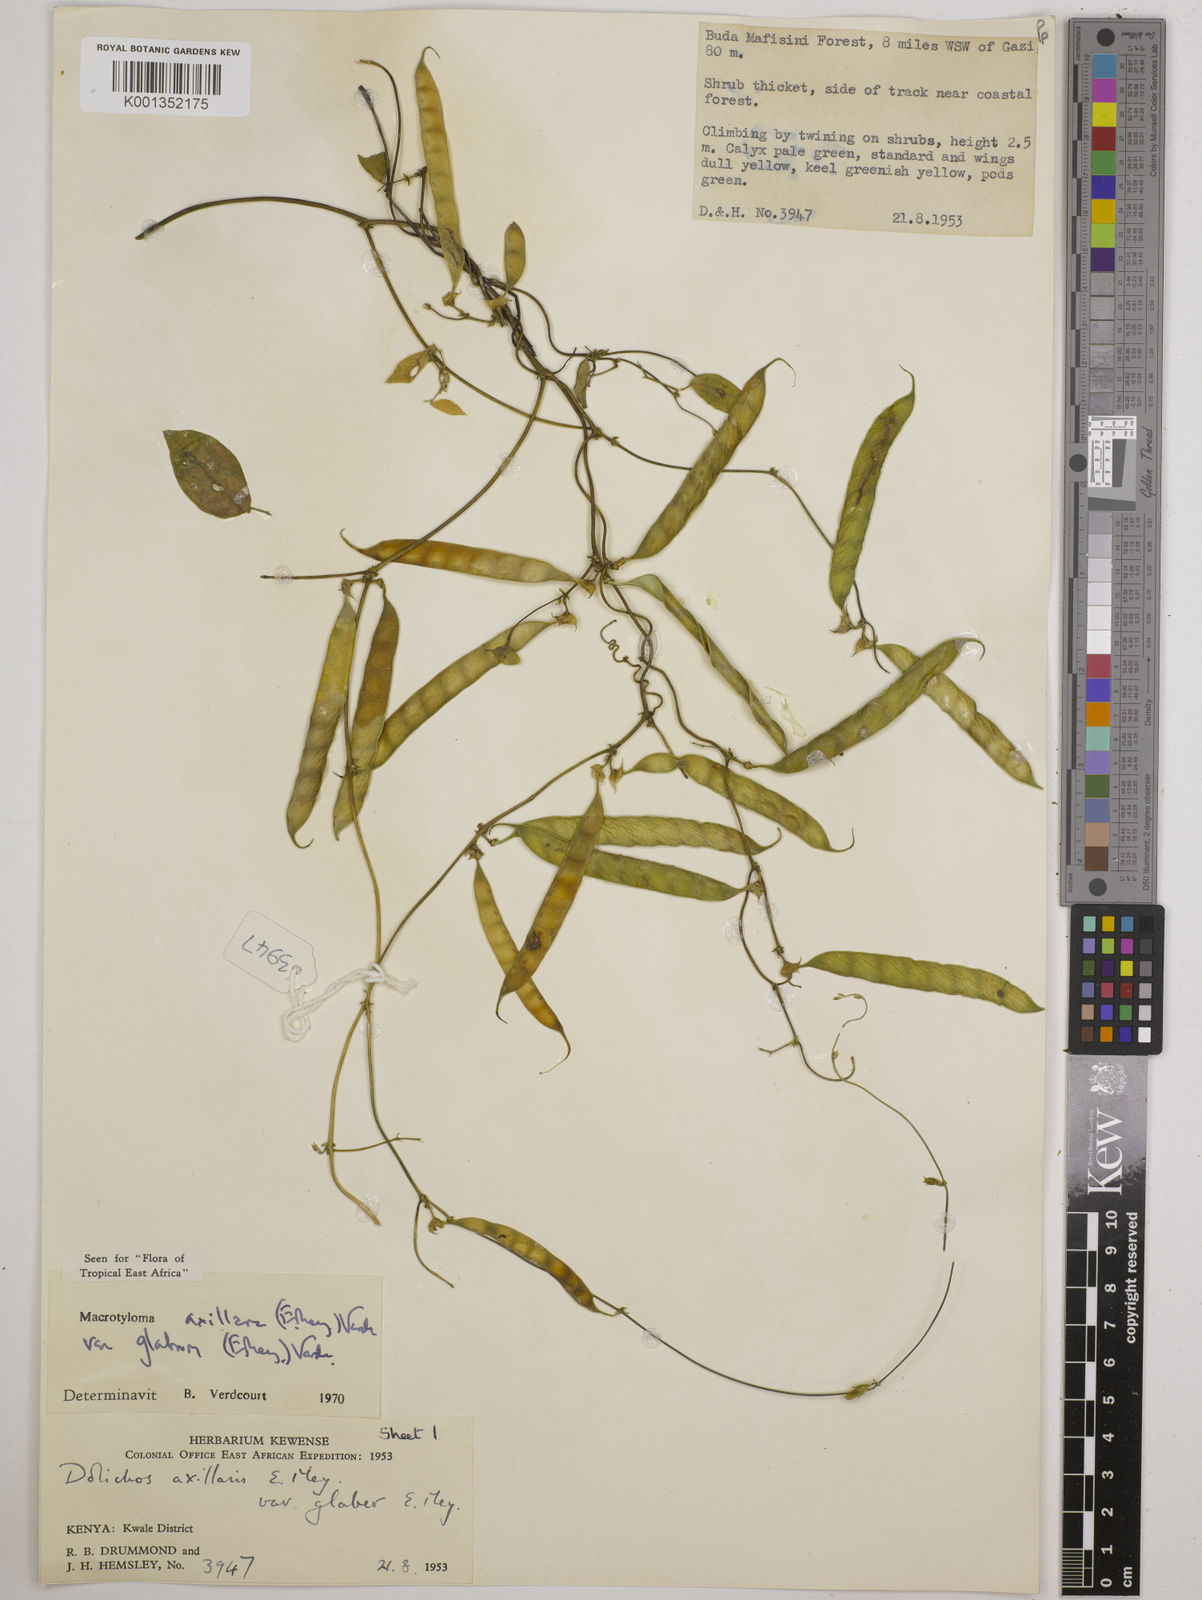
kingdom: Plantae
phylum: Tracheophyta
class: Magnoliopsida
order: Fabales
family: Fabaceae
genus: Macrotyloma
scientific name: Macrotyloma
